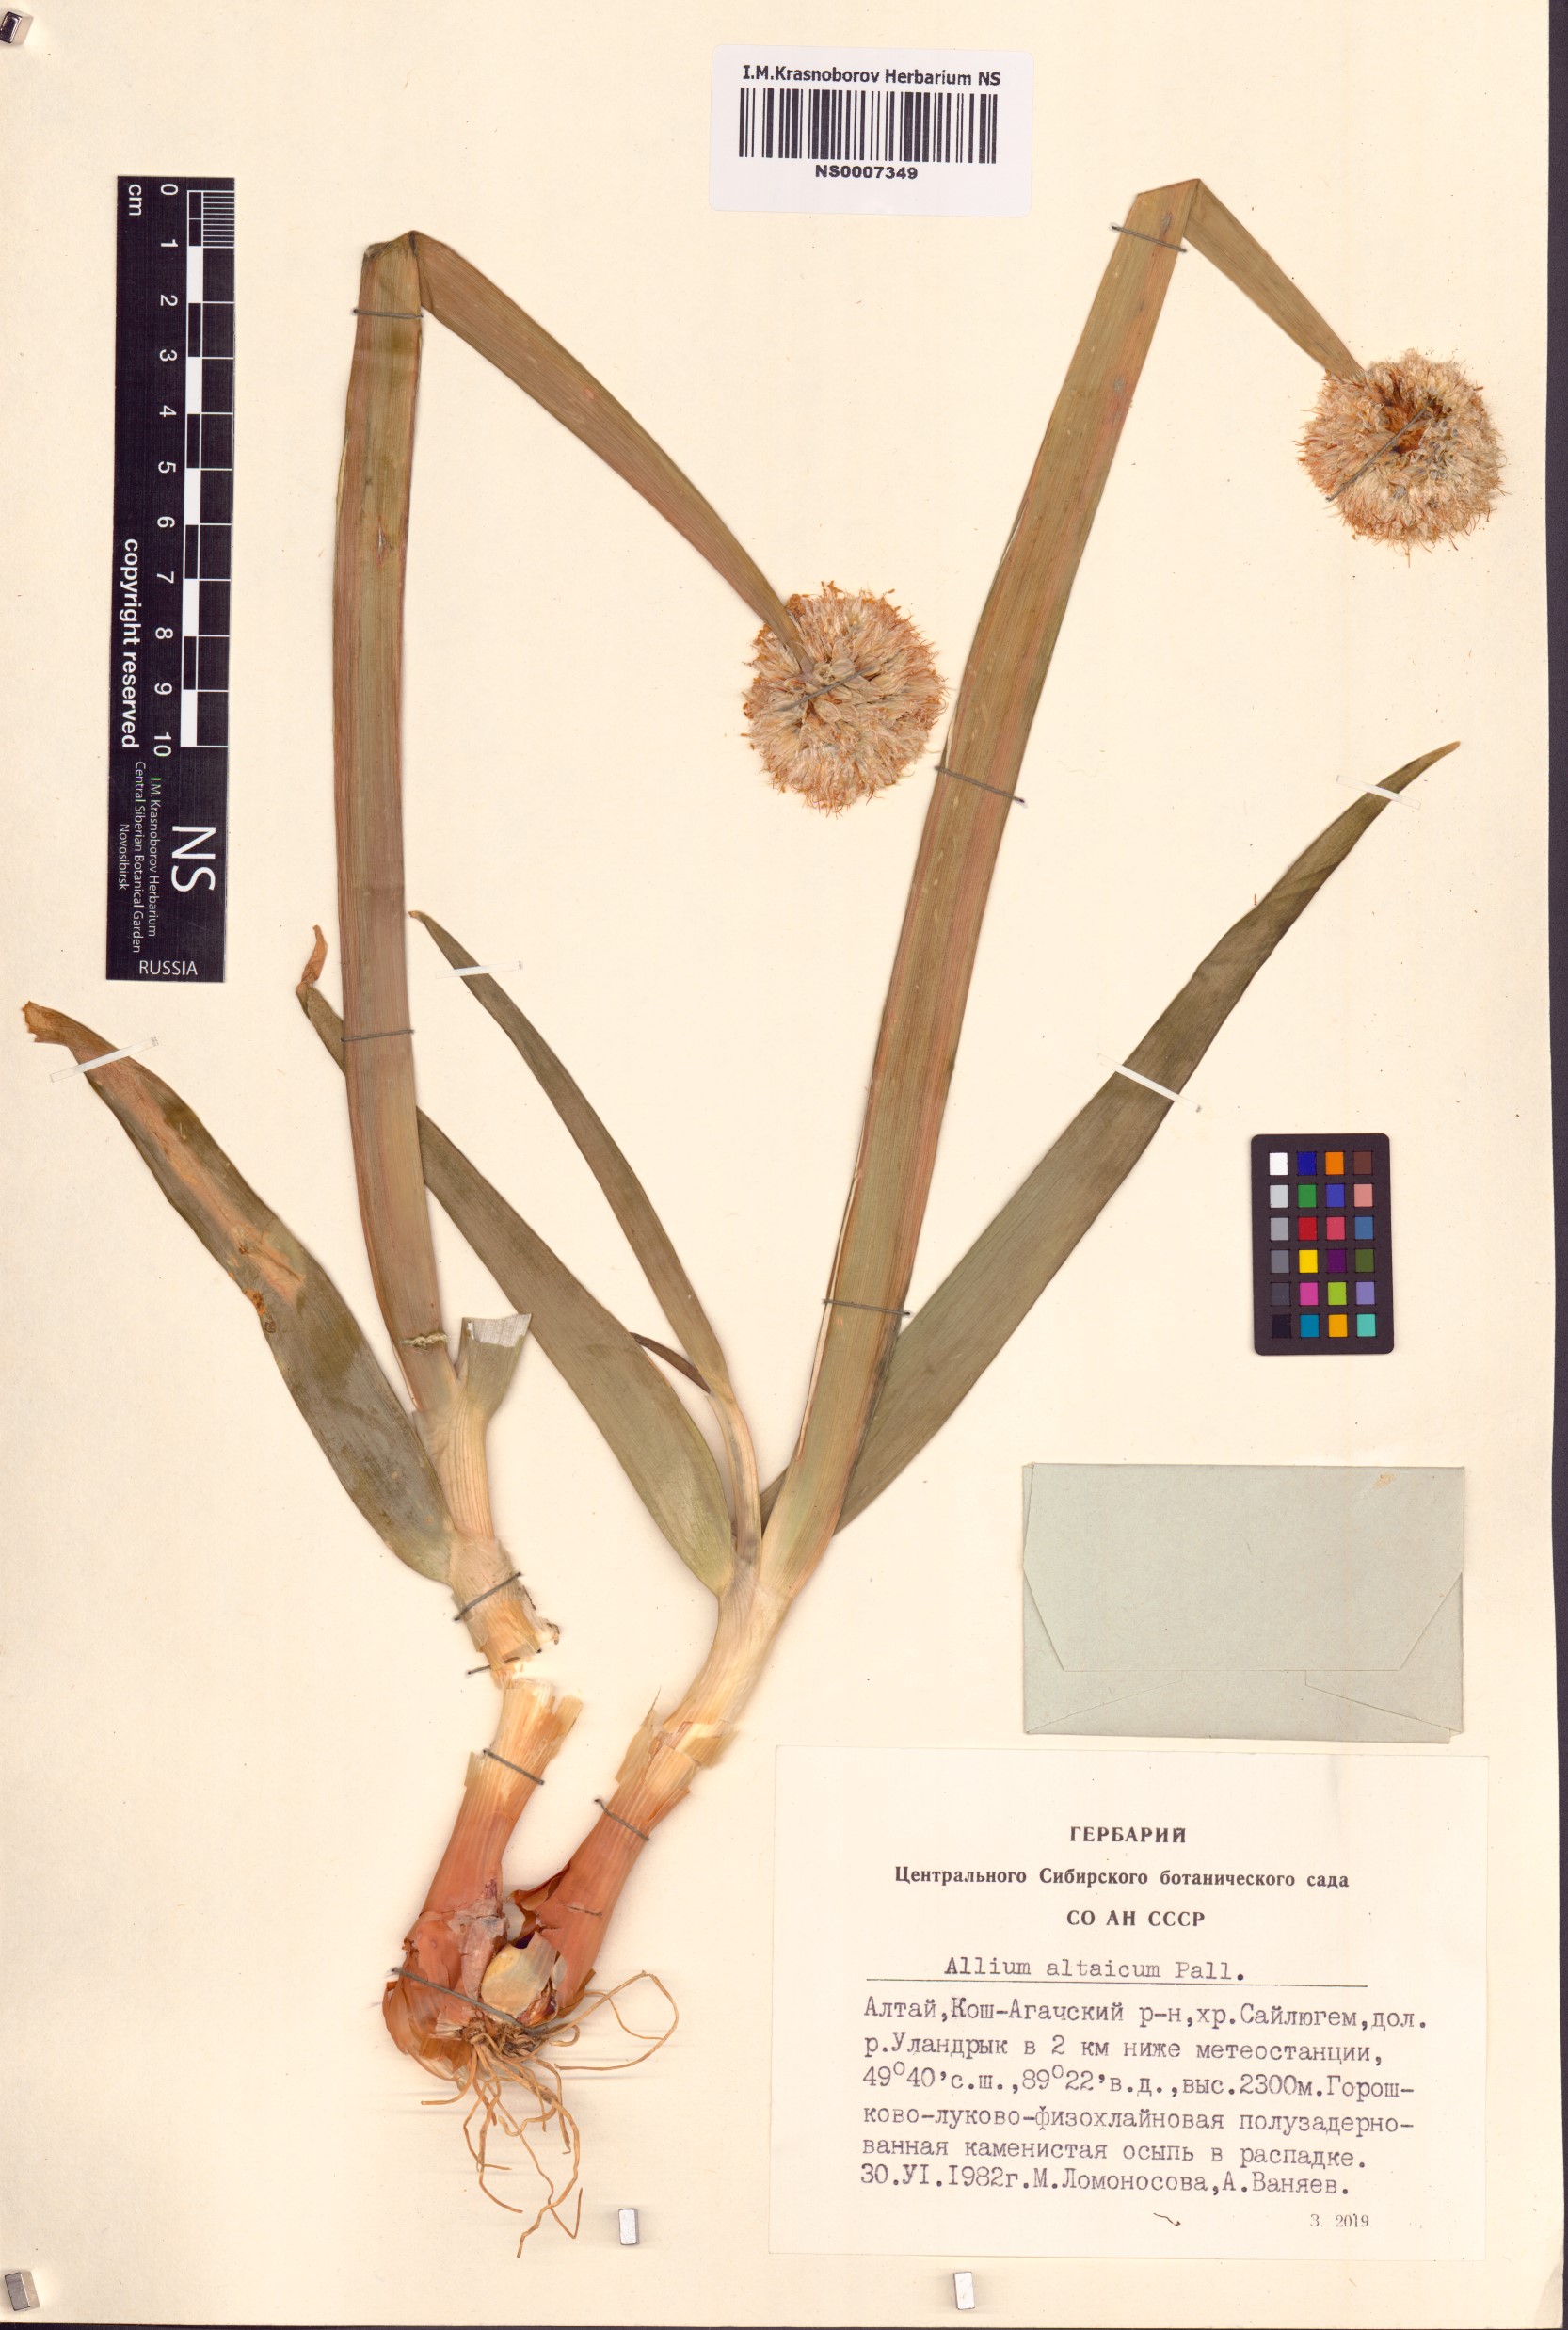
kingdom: Plantae
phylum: Tracheophyta
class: Liliopsida
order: Asparagales
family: Amaryllidaceae
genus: Allium
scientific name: Allium altaicum
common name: Altai onion
